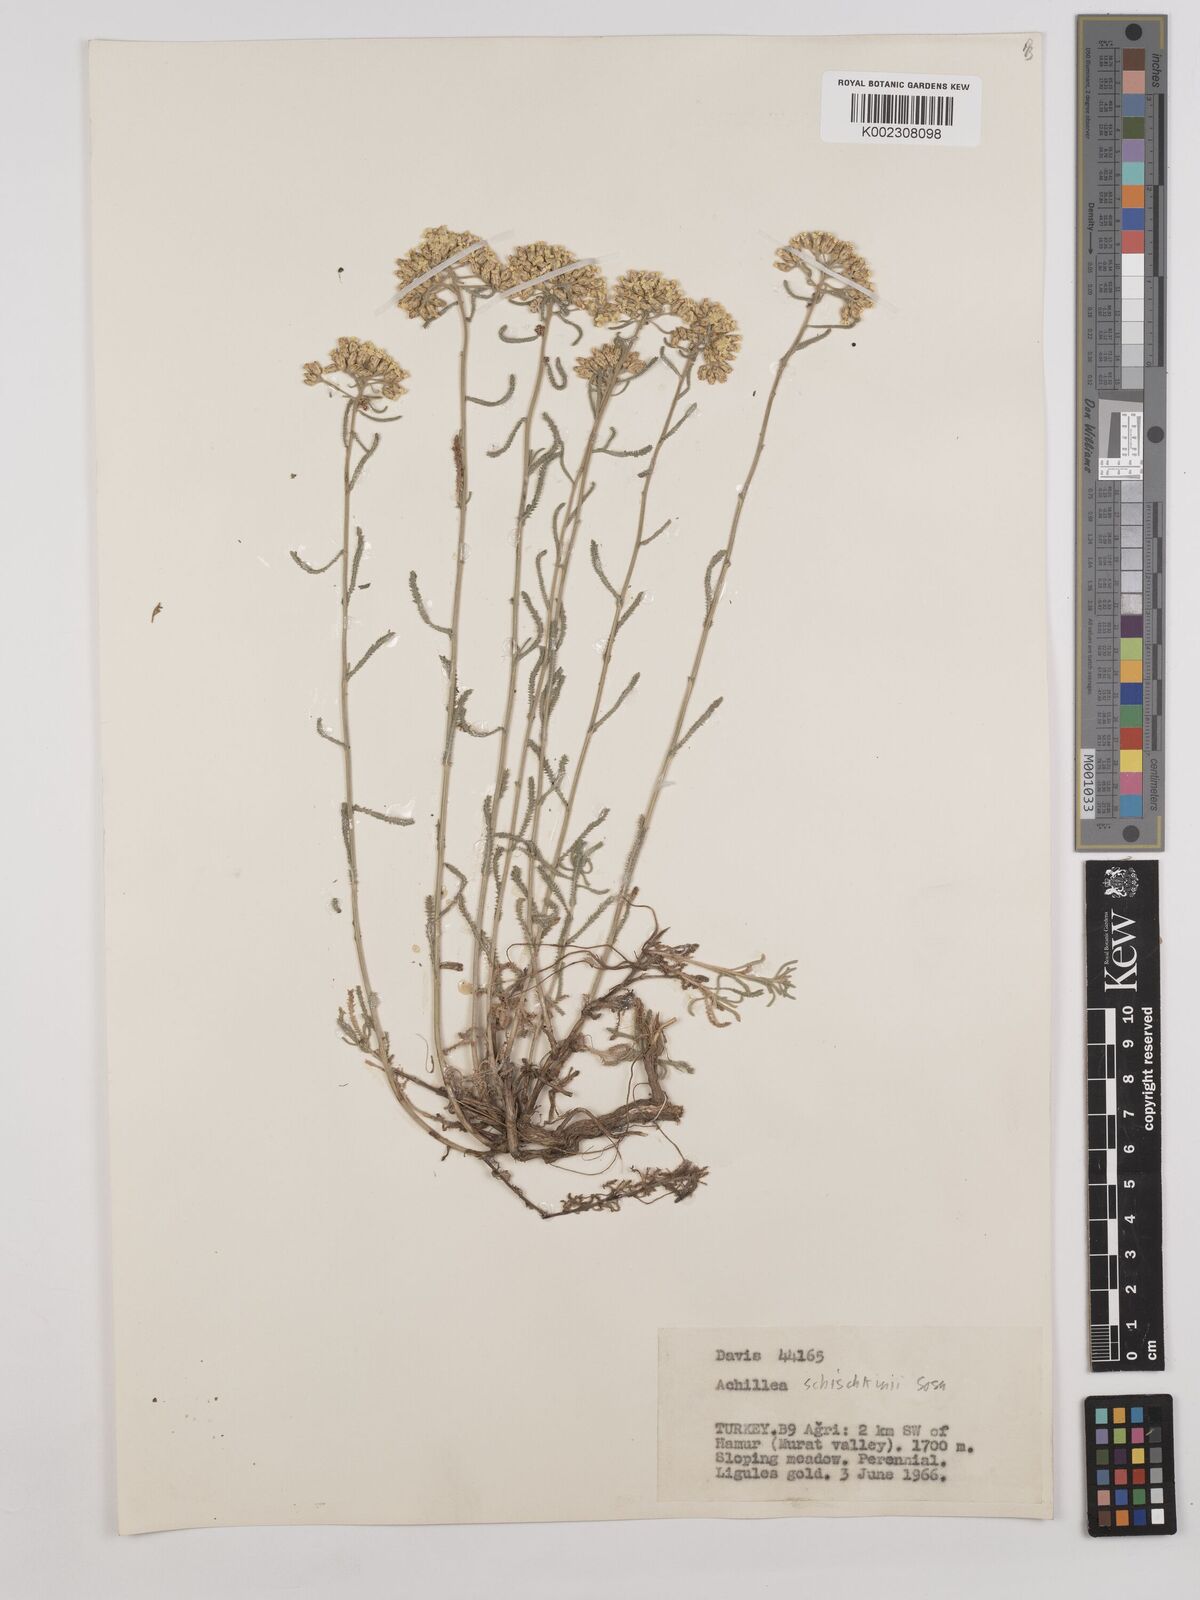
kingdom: Plantae
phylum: Tracheophyta
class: Magnoliopsida
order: Asterales
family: Asteraceae
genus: Achillea
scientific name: Achillea schischkinii
